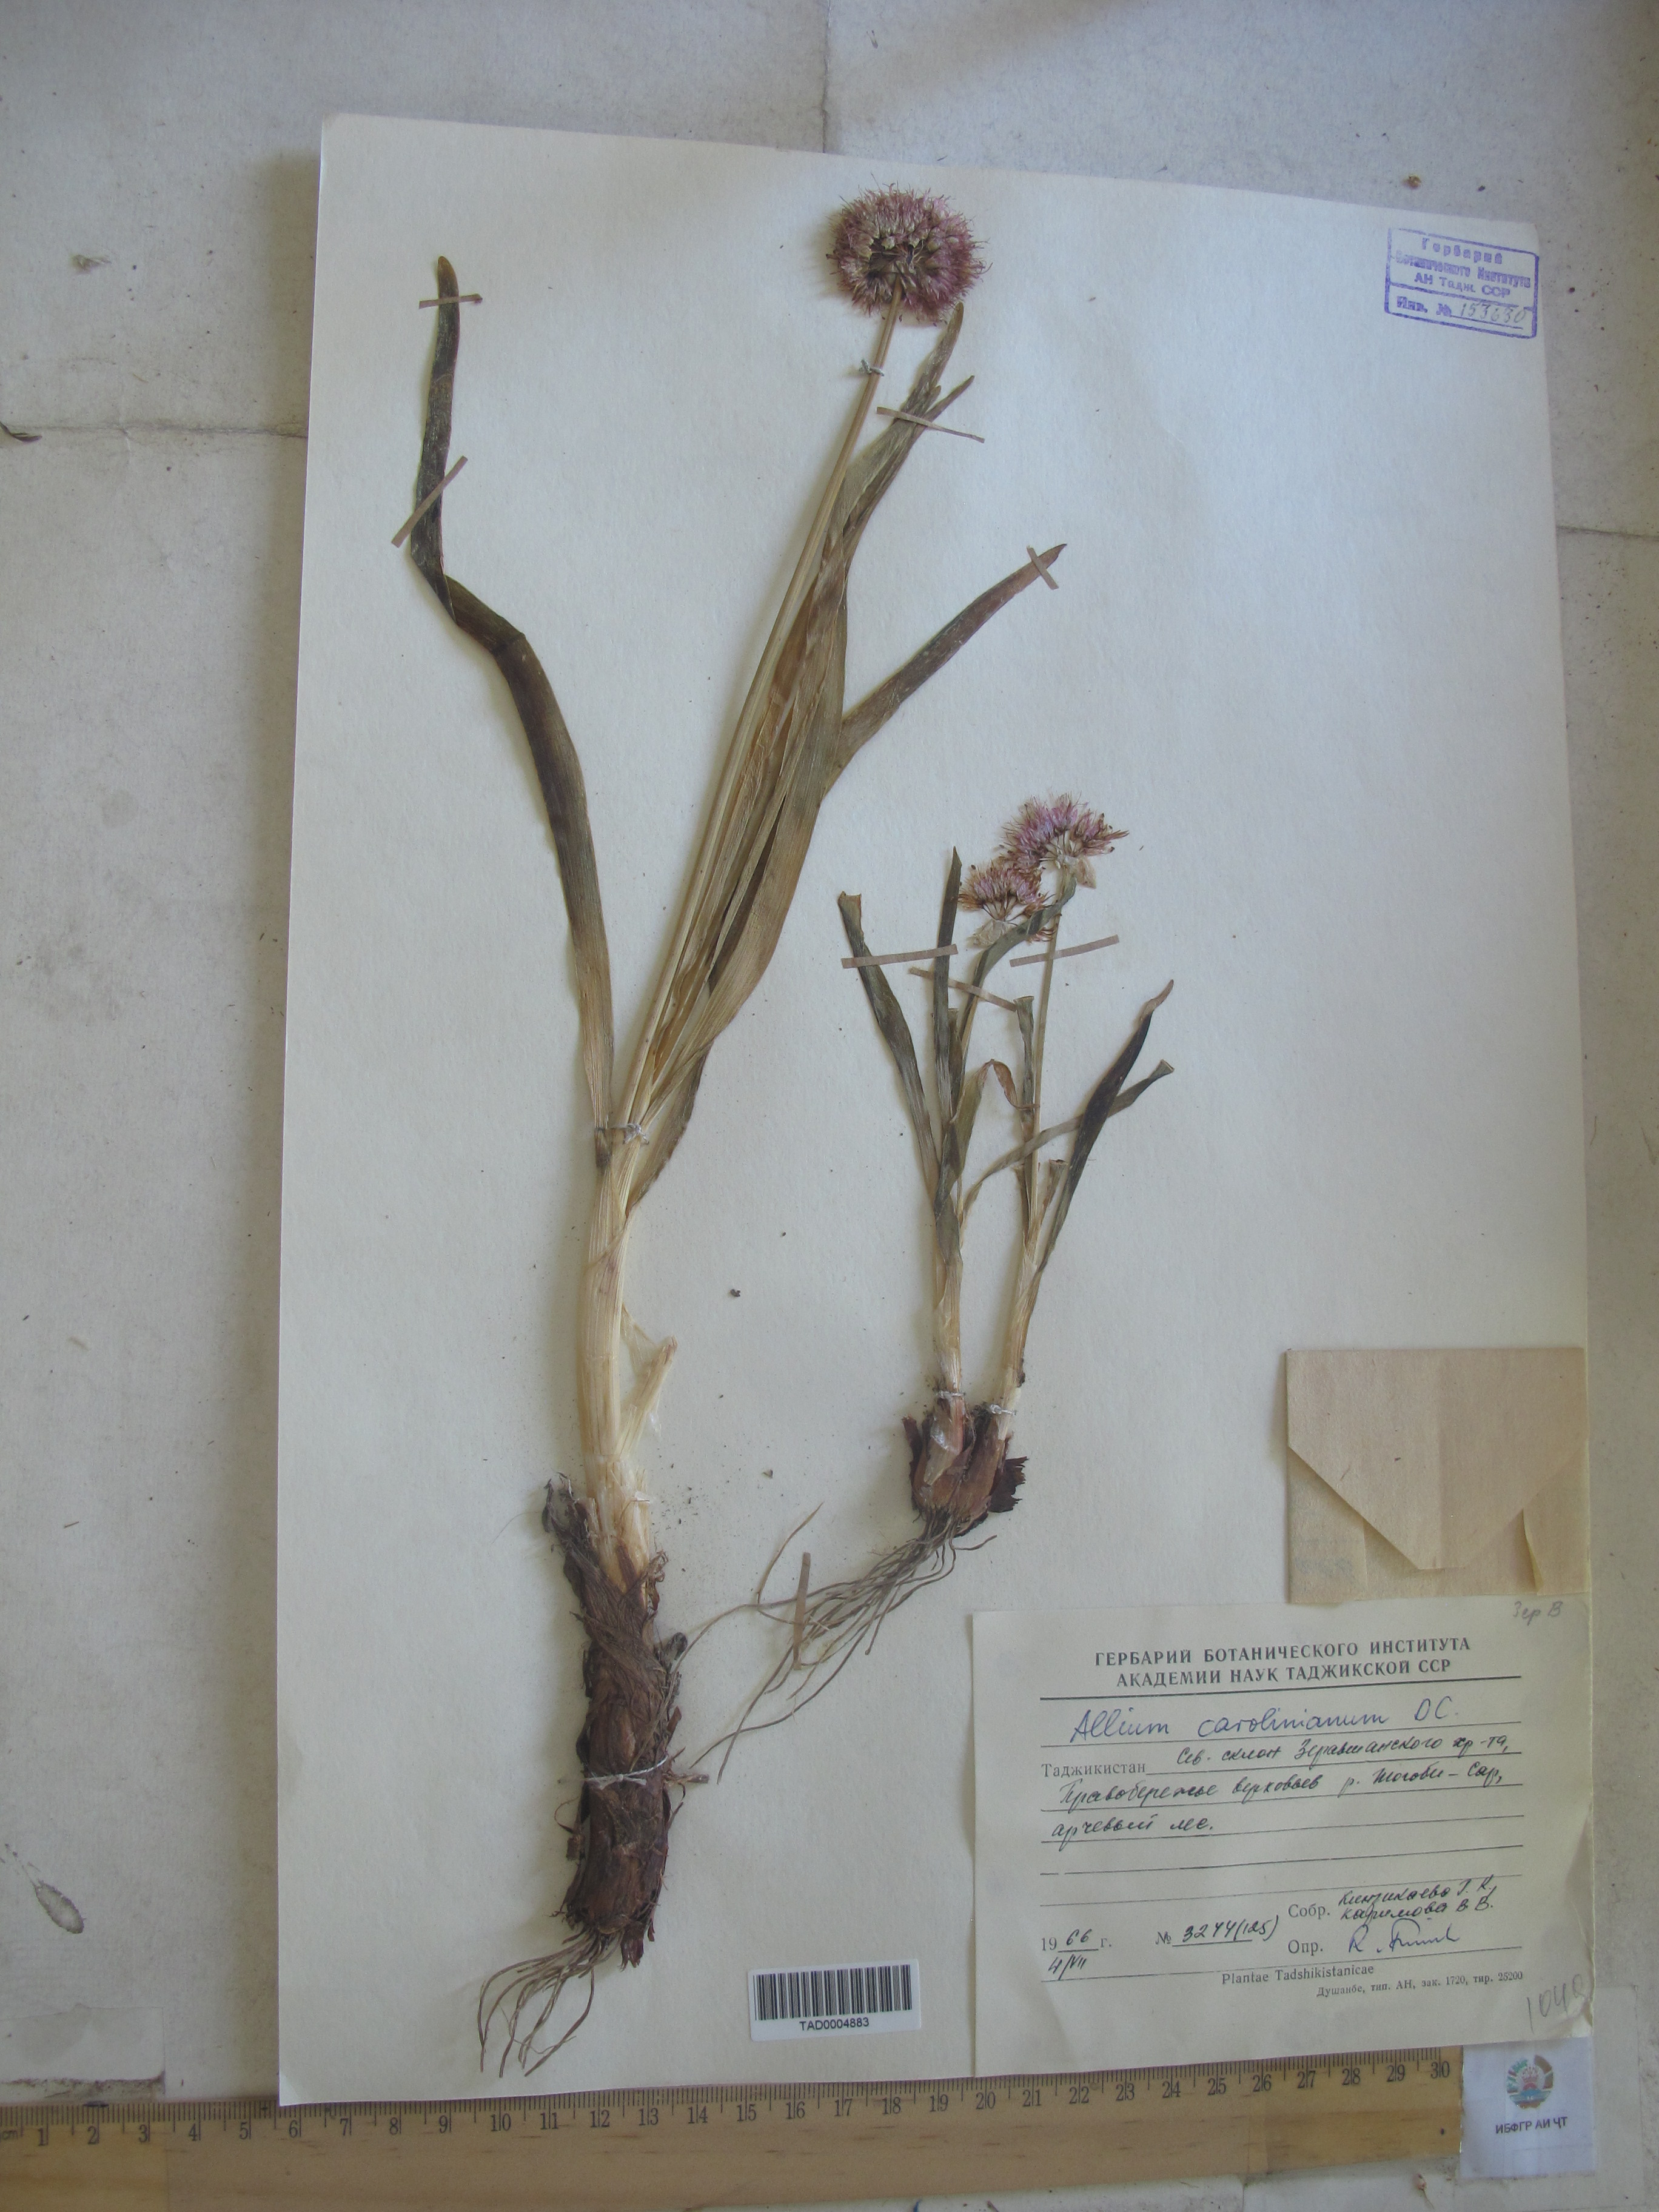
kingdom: Plantae
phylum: Tracheophyta
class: Liliopsida
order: Asparagales
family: Amaryllidaceae
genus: Allium
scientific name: Allium carolinianum
